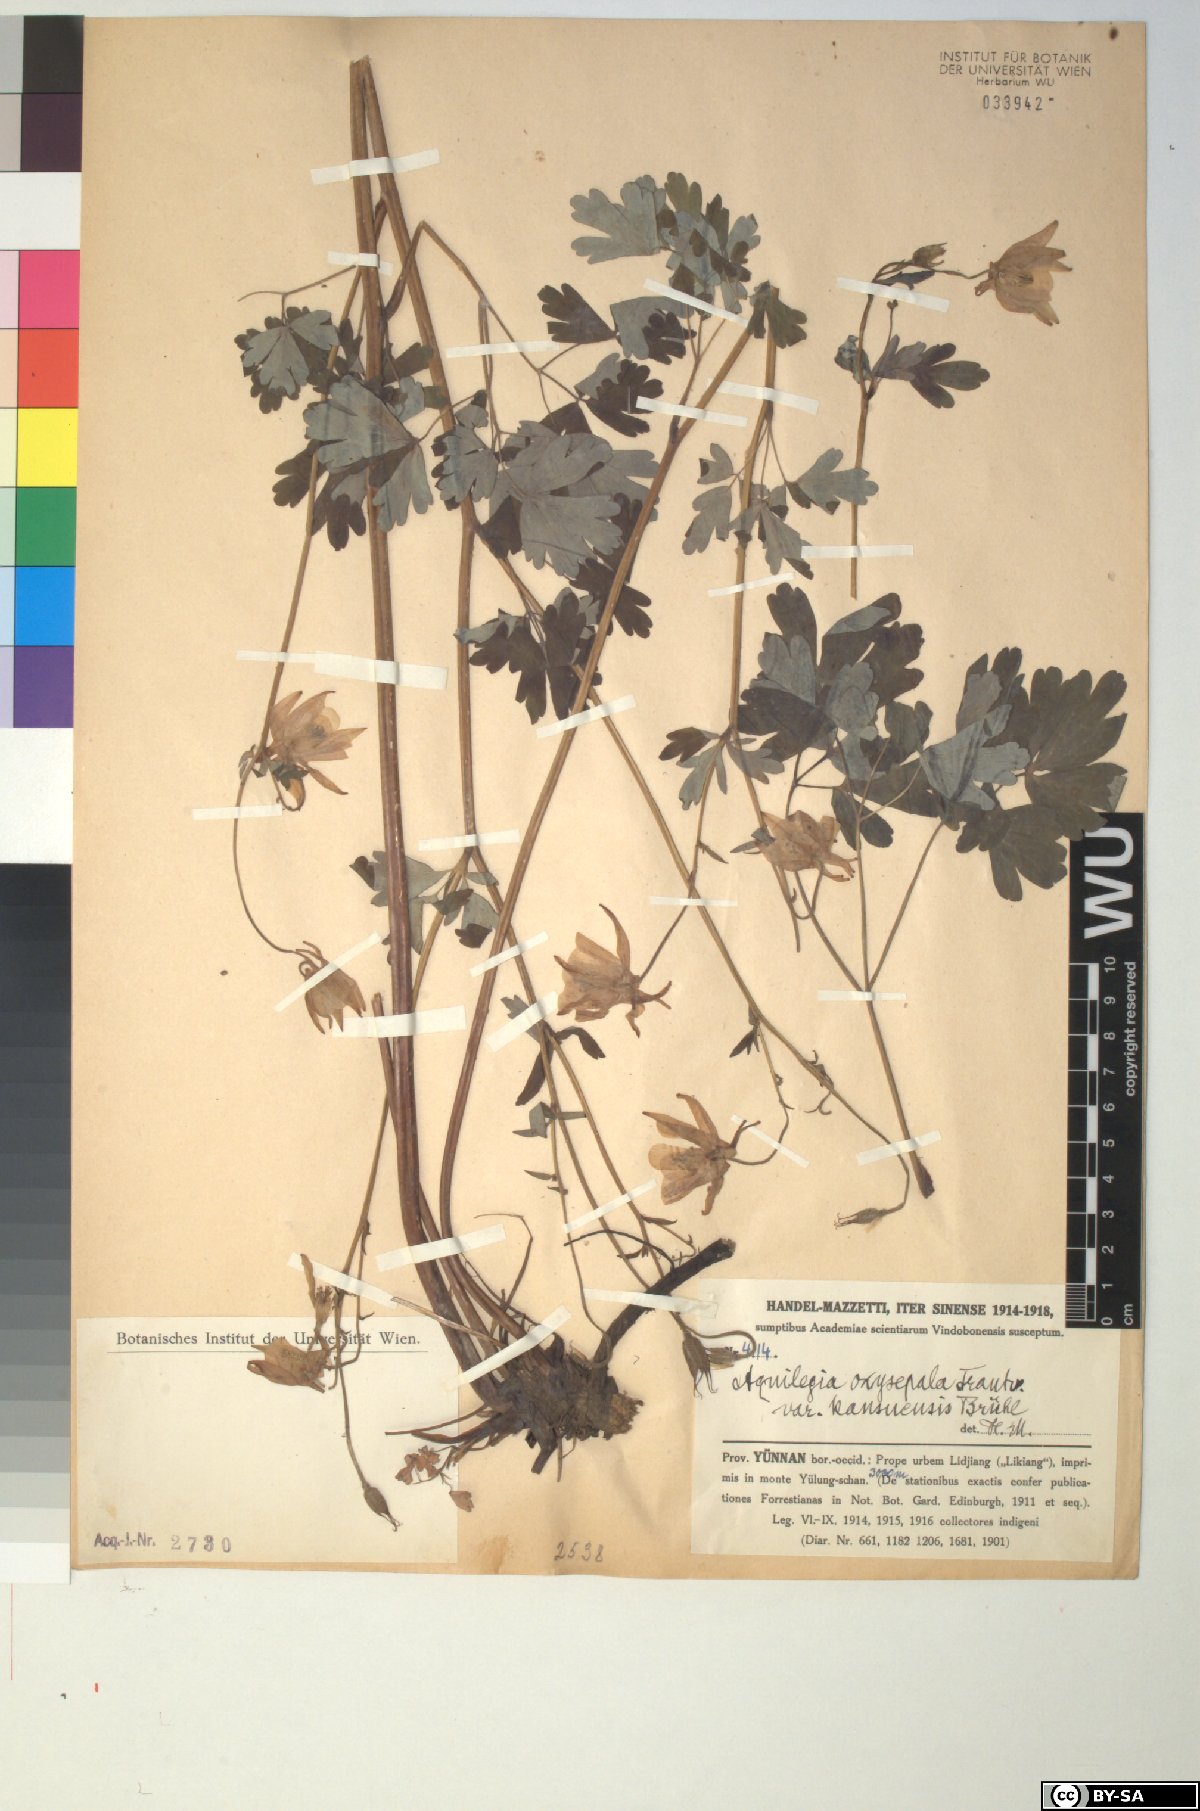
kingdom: Plantae
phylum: Tracheophyta
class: Magnoliopsida
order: Ranunculales
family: Ranunculaceae
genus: Aquilegia
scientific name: Aquilegia kansuensis
